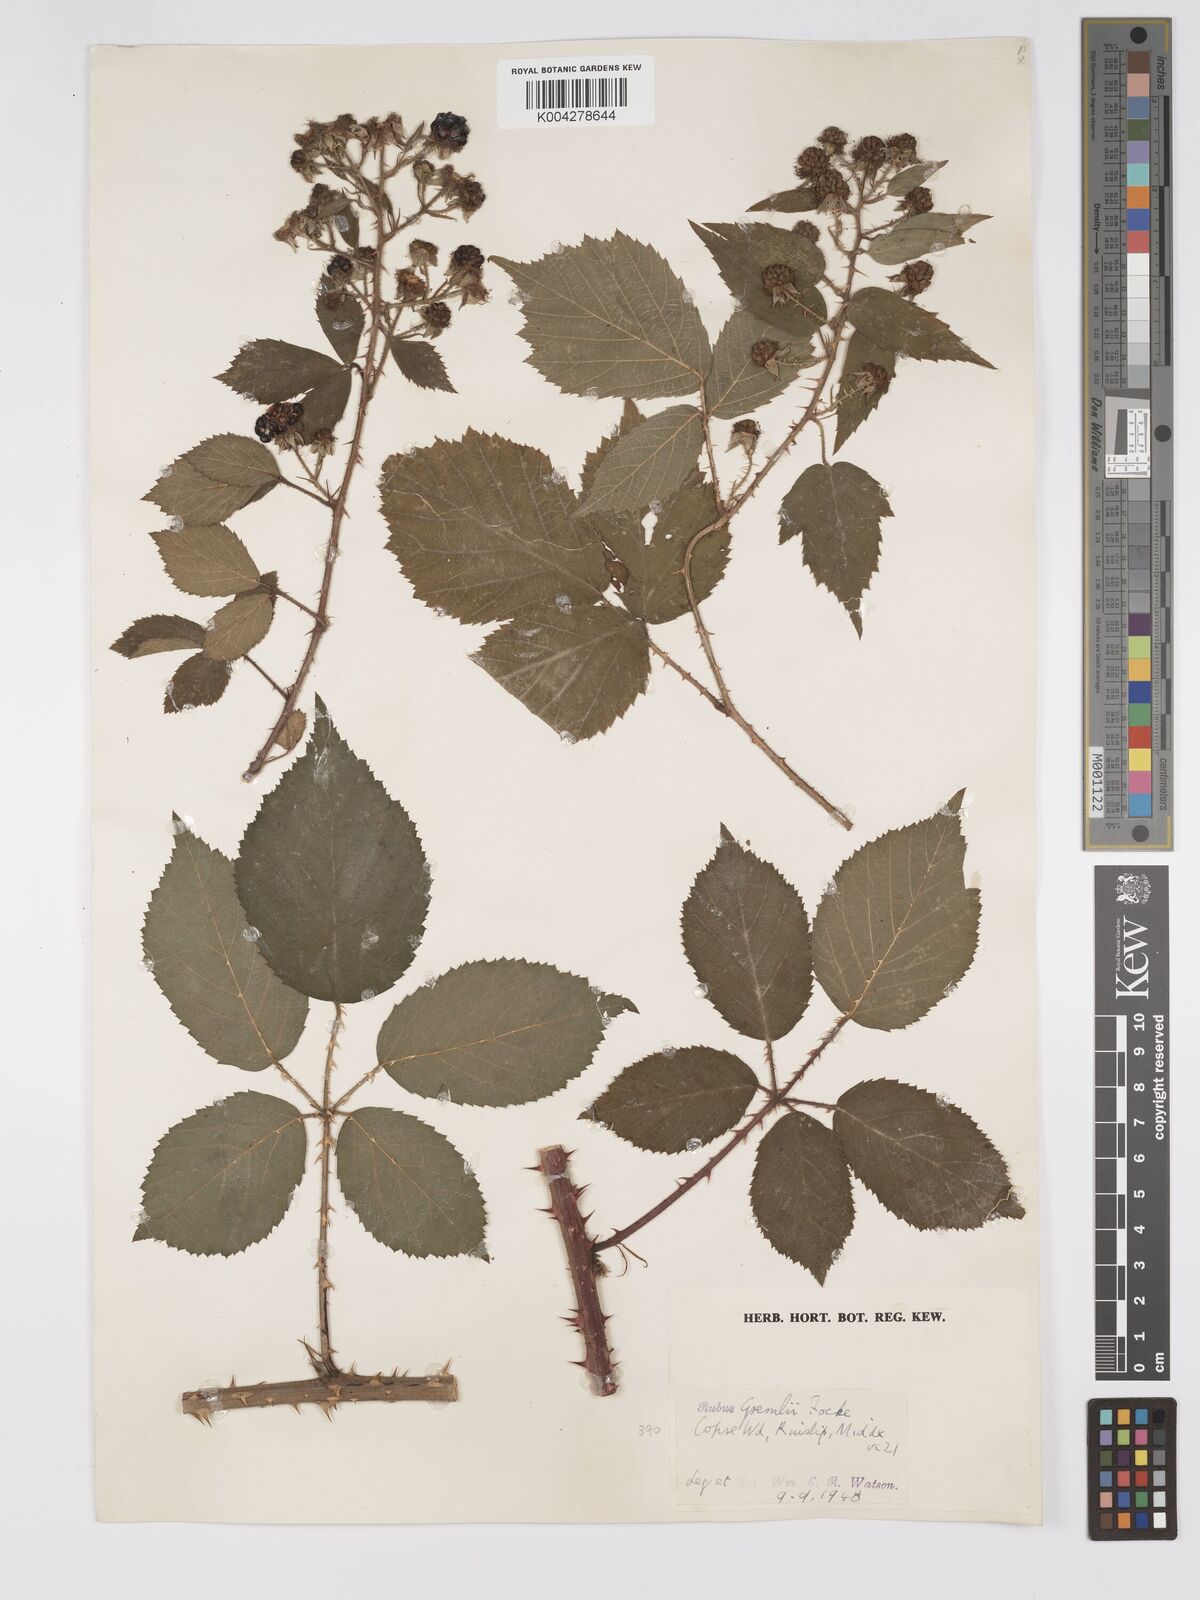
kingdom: Plantae
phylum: Tracheophyta
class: Magnoliopsida
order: Rosales
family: Rosaceae
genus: Rubus
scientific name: Rubus gremlii
